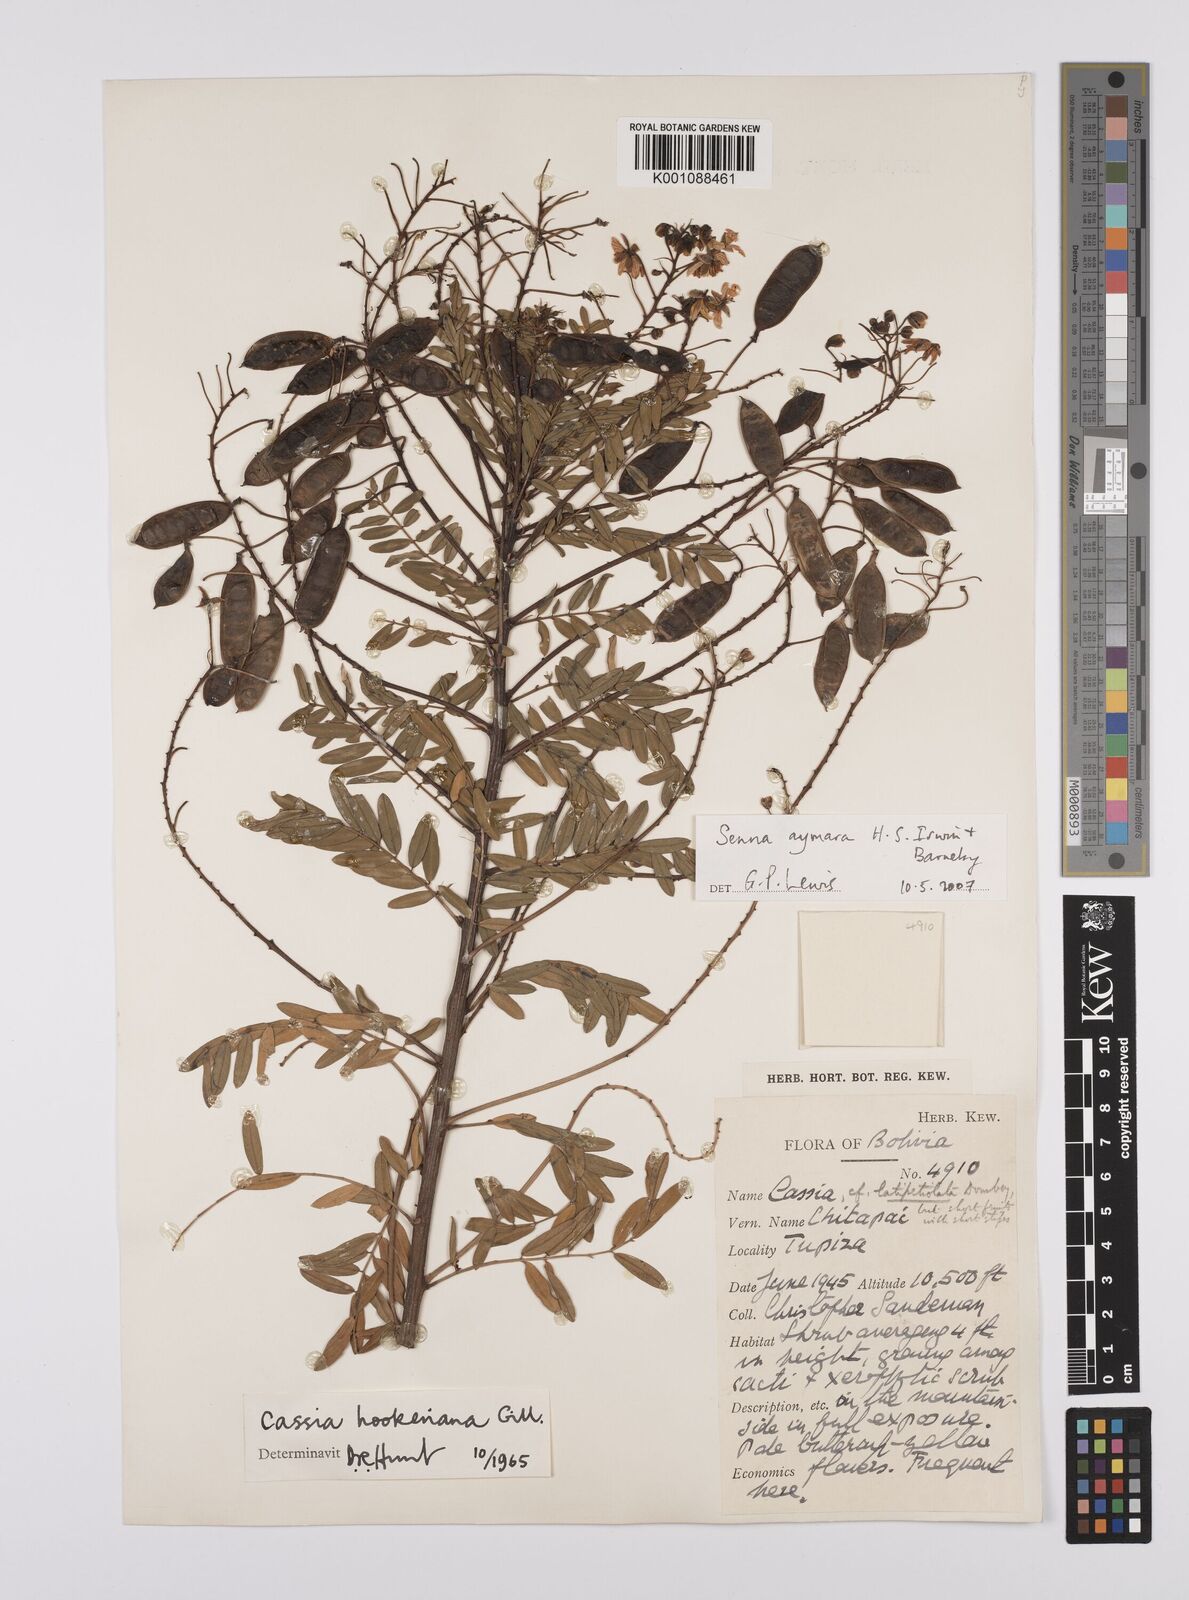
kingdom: Plantae
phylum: Tracheophyta
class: Magnoliopsida
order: Fabales
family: Fabaceae
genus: Senna
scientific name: Senna aymara
